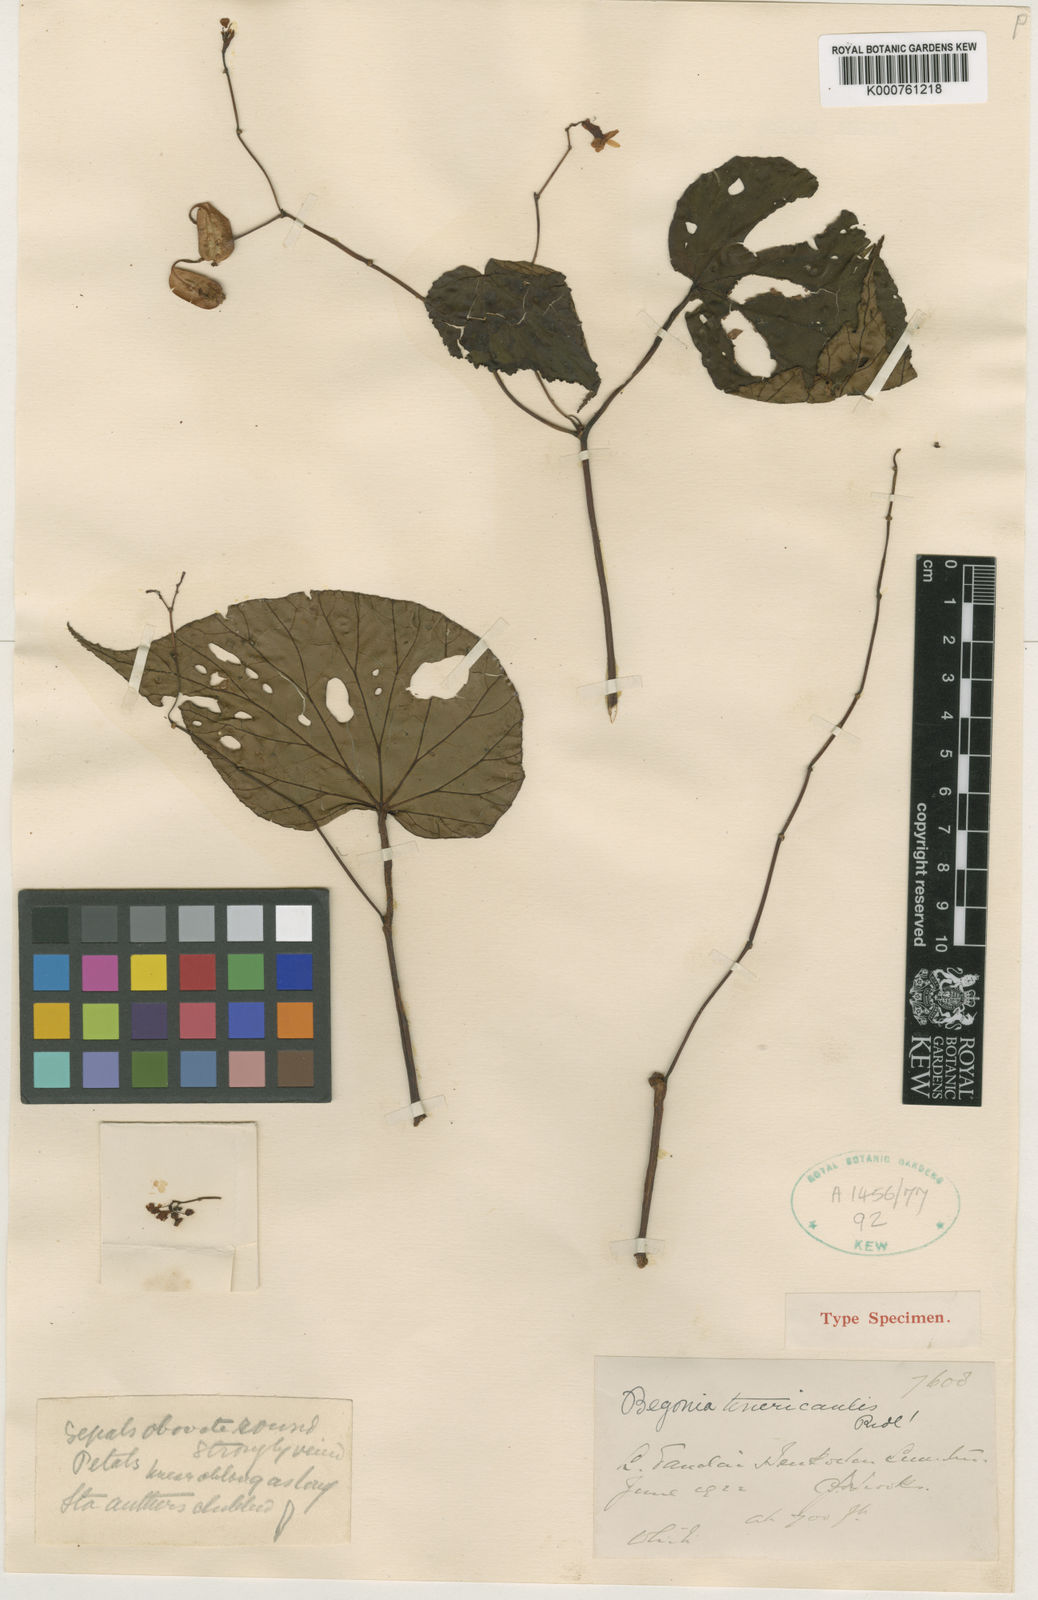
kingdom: Plantae
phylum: Tracheophyta
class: Magnoliopsida
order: Cucurbitales
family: Begoniaceae
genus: Begonia
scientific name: Begonia tenericaulis
